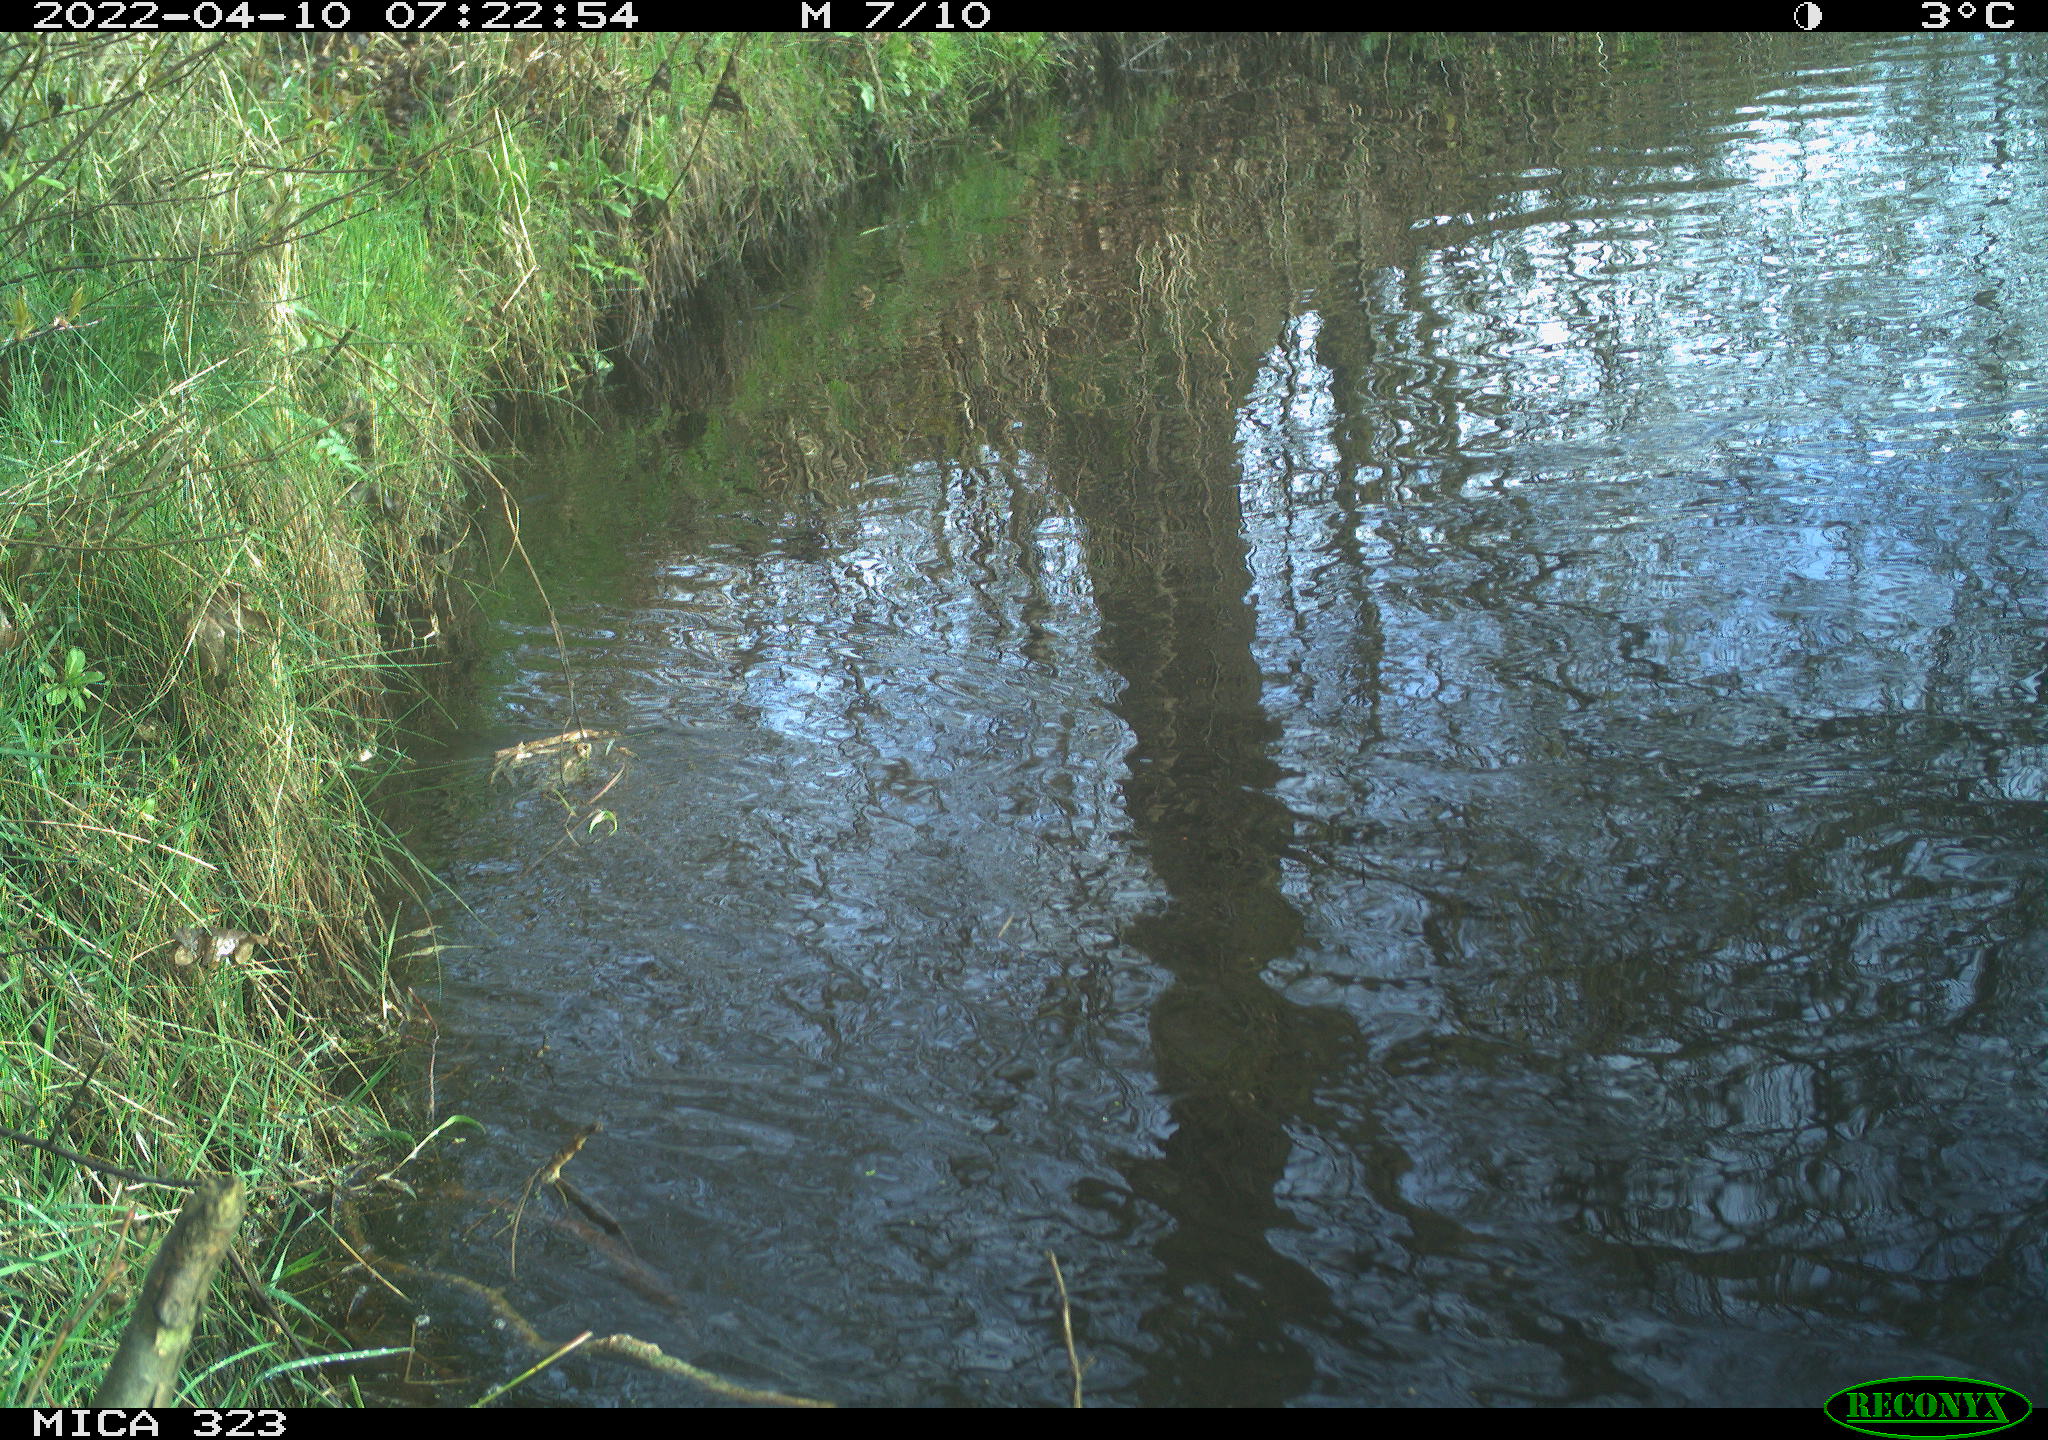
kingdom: Animalia
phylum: Chordata
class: Aves
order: Anseriformes
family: Anatidae
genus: Anas
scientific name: Anas
